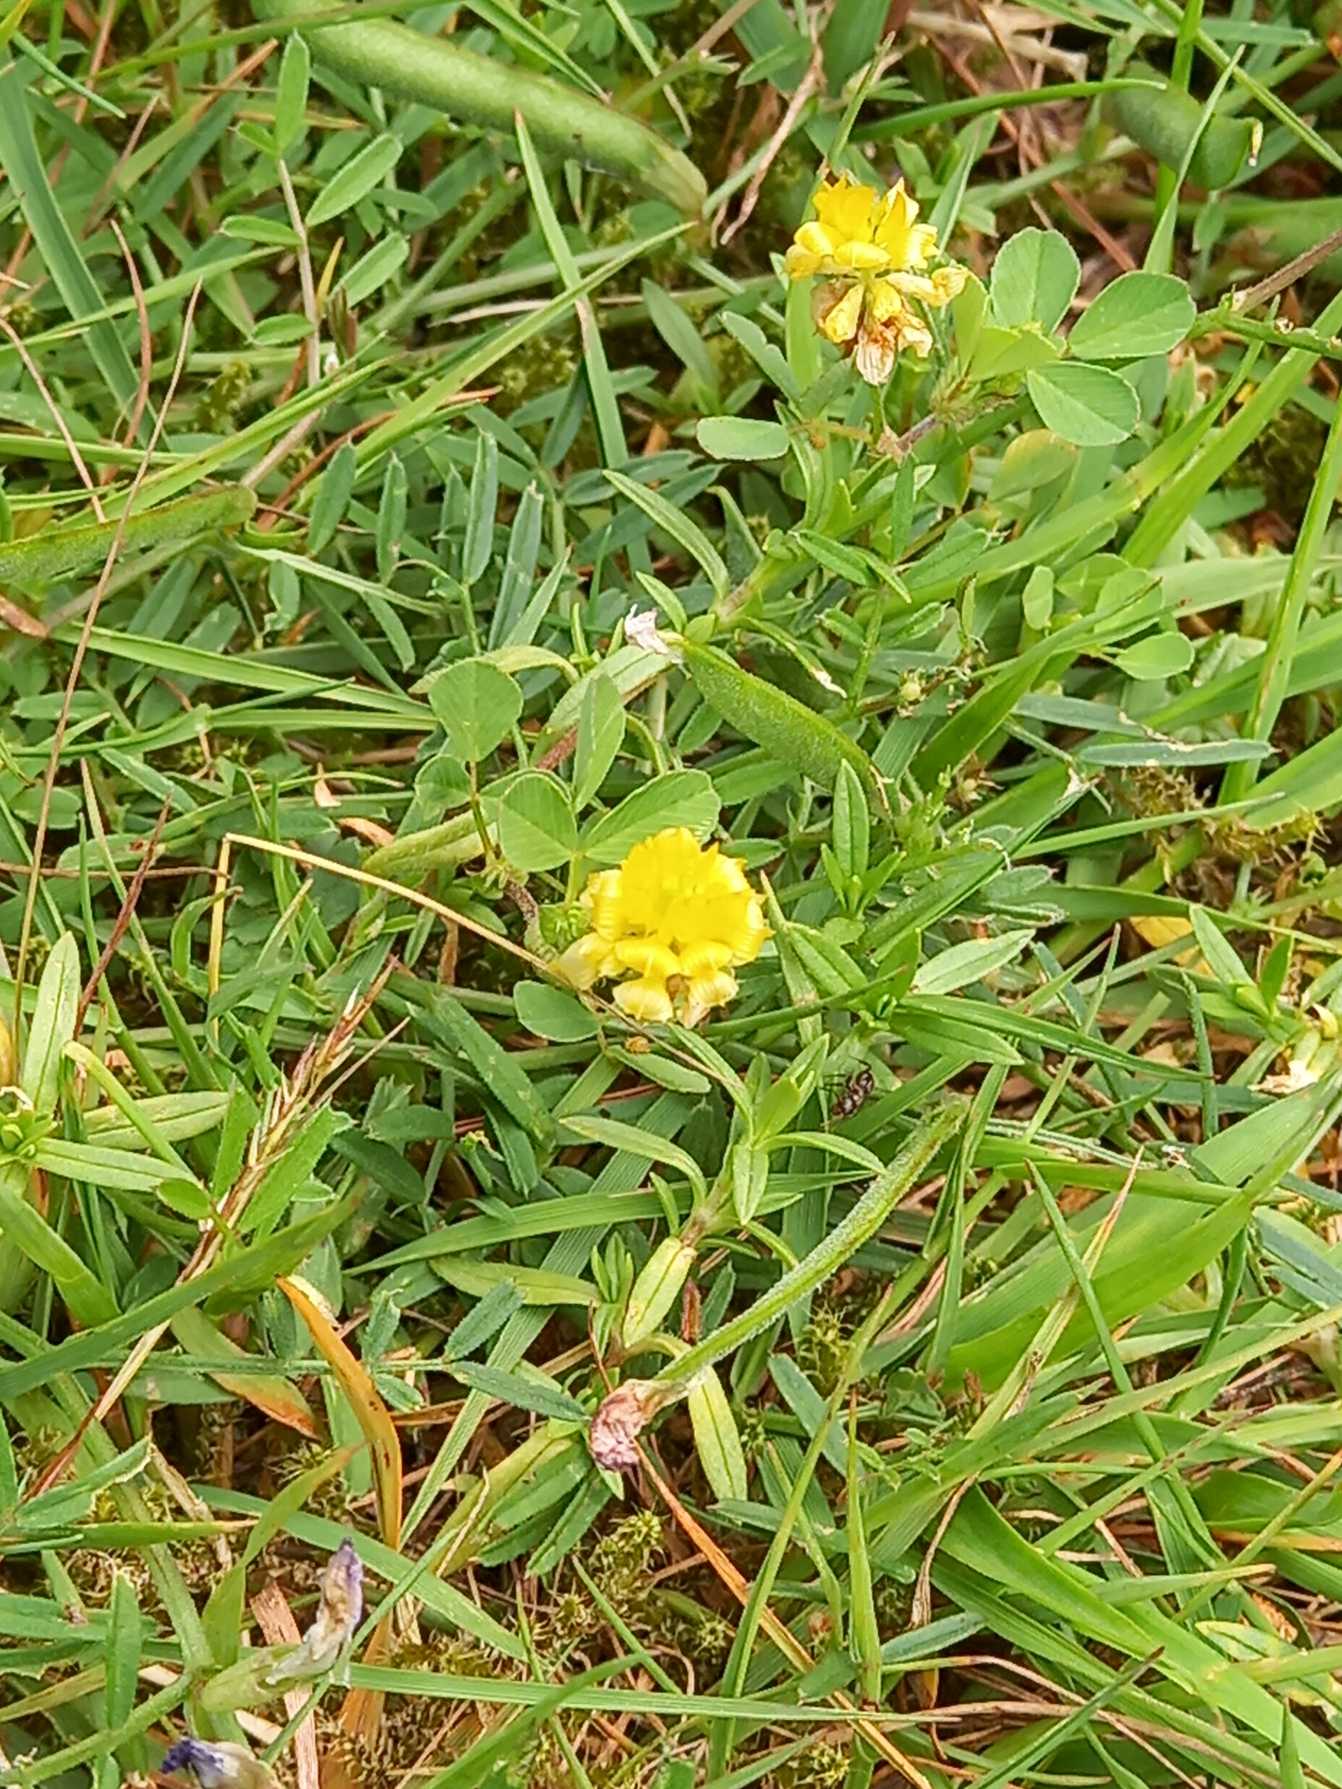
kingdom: Plantae
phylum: Tracheophyta
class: Magnoliopsida
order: Fabales
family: Fabaceae
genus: Trifolium
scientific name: Trifolium campestre
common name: Gul kløver
